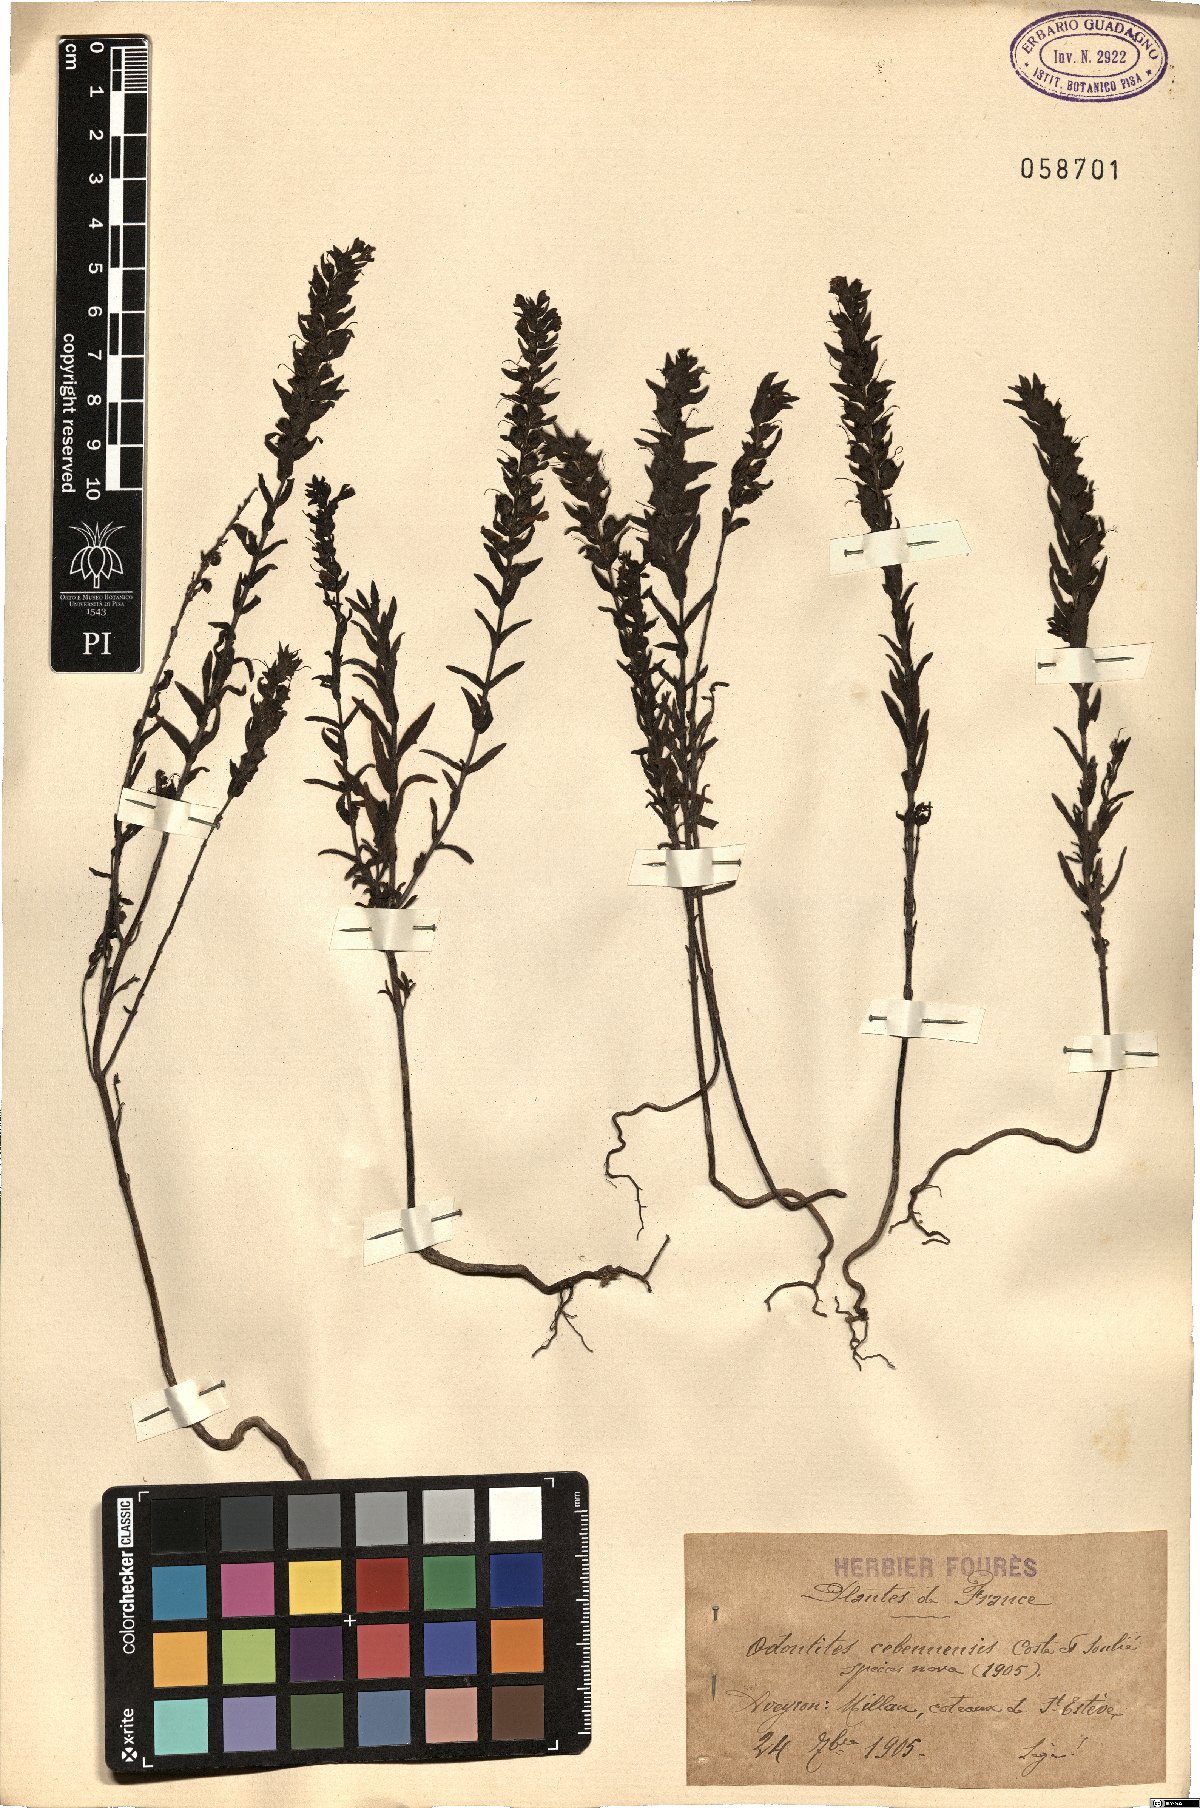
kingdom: Plantae
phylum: Tracheophyta
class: Magnoliopsida
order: Lamiales
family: Orobanchaceae
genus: Odontites
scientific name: Odontites cebennensis
